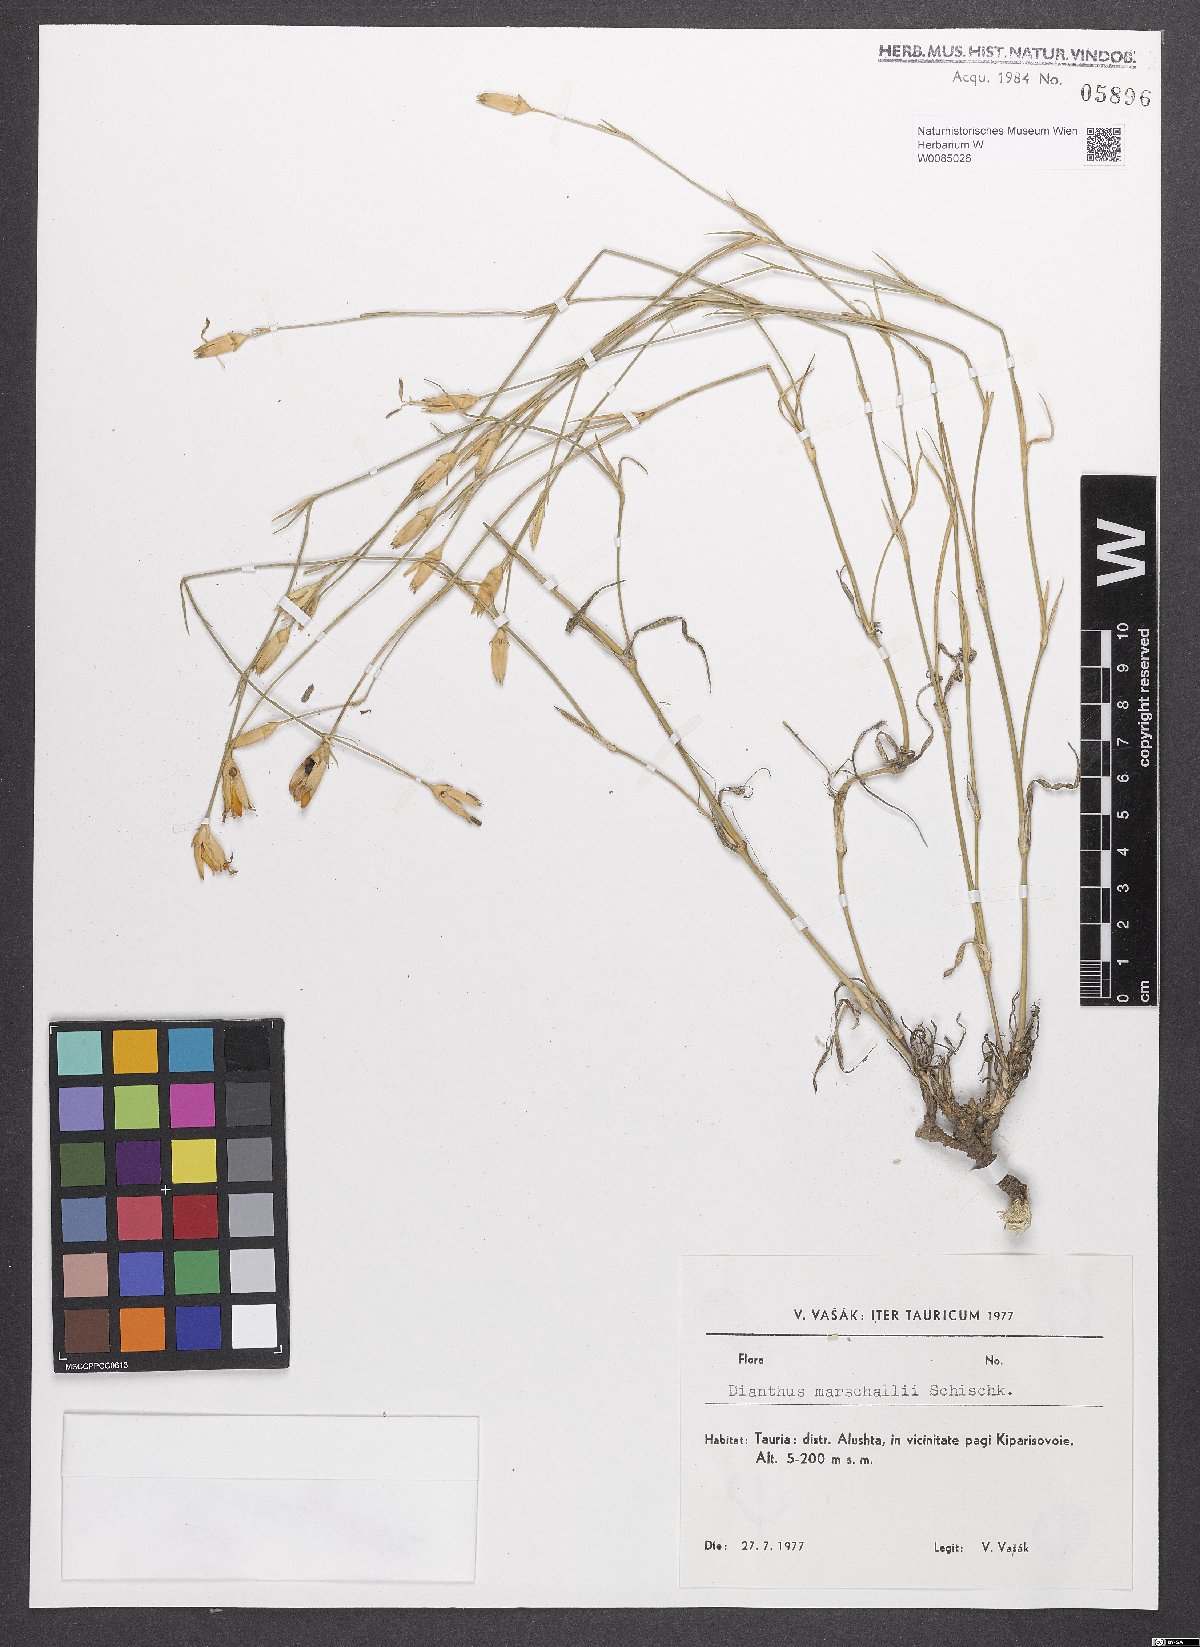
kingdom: Plantae
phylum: Tracheophyta
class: Magnoliopsida
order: Caryophyllales
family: Caryophyllaceae
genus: Dianthus
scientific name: Dianthus marschallii
